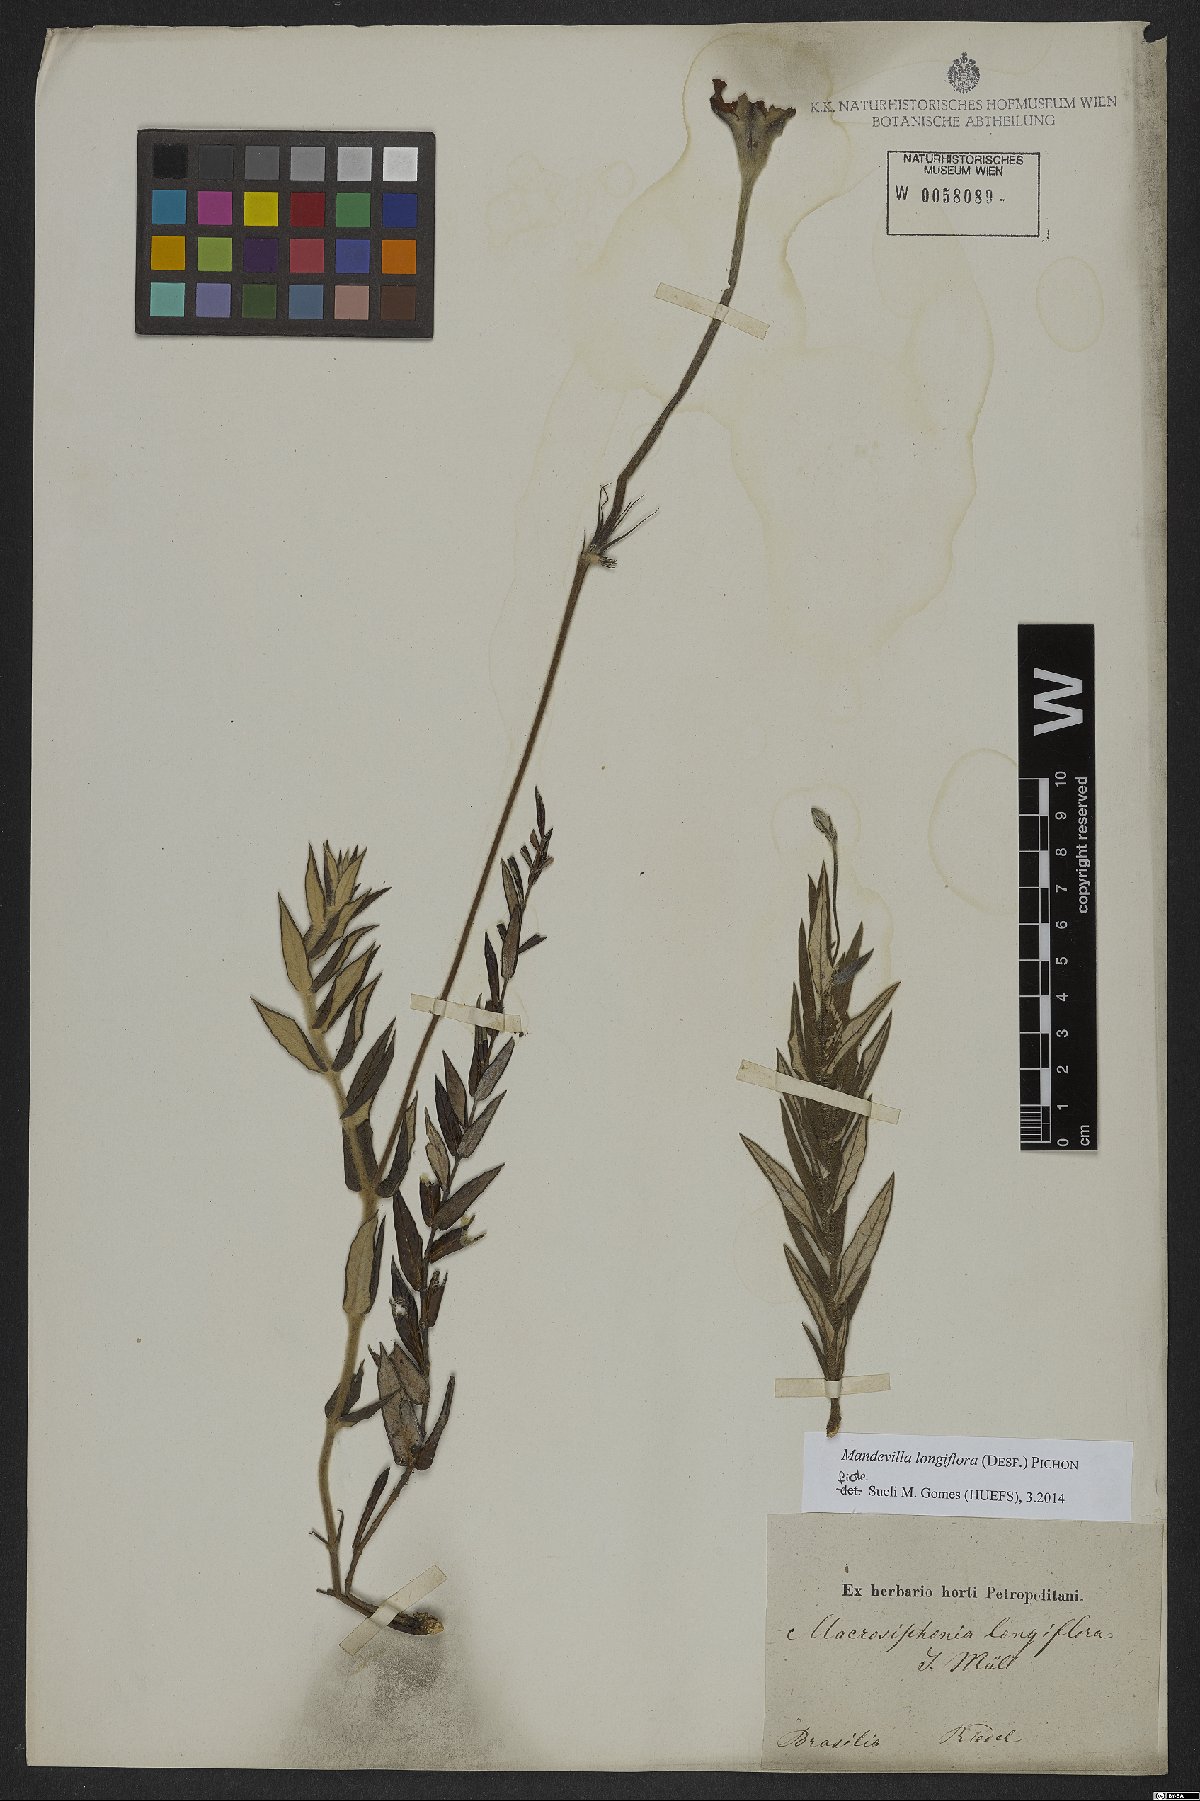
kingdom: Plantae
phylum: Tracheophyta
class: Magnoliopsida
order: Gentianales
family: Apocynaceae
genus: Mandevilla
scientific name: Mandevilla longiflora
